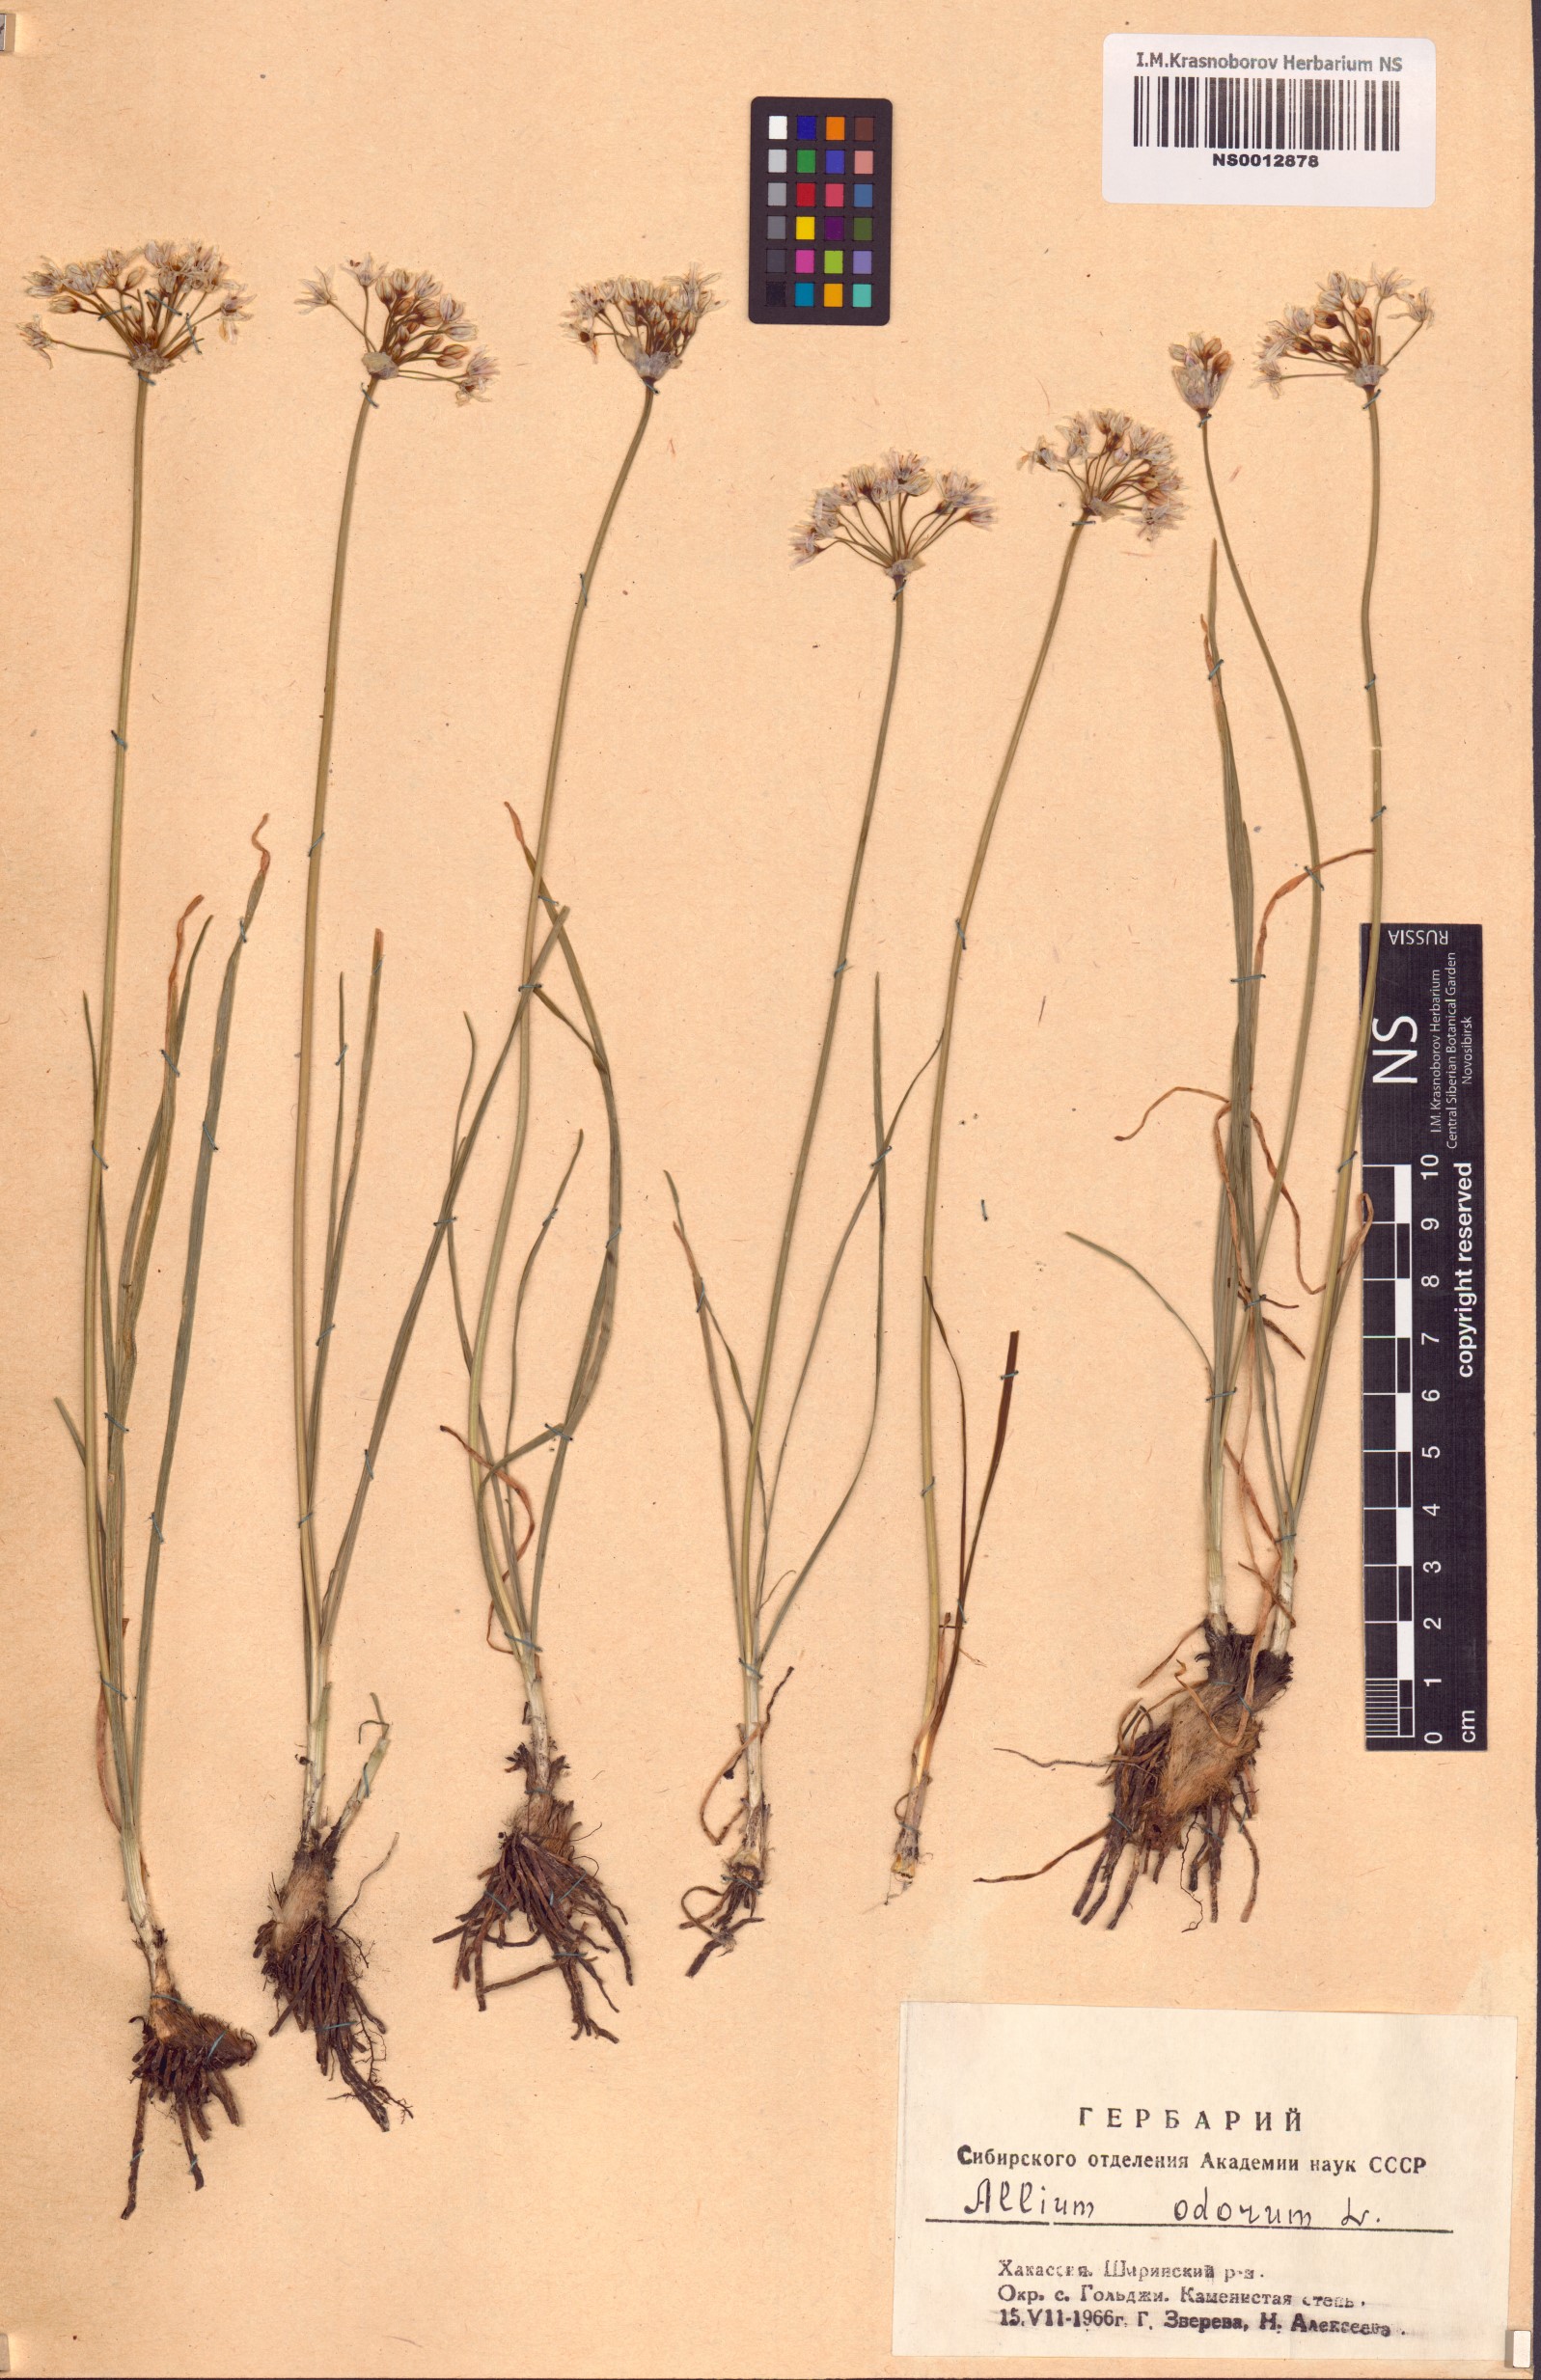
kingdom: Plantae
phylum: Tracheophyta
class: Liliopsida
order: Asparagales
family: Amaryllidaceae
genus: Allium
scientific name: Allium ramosum
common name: Fragrant garlic
